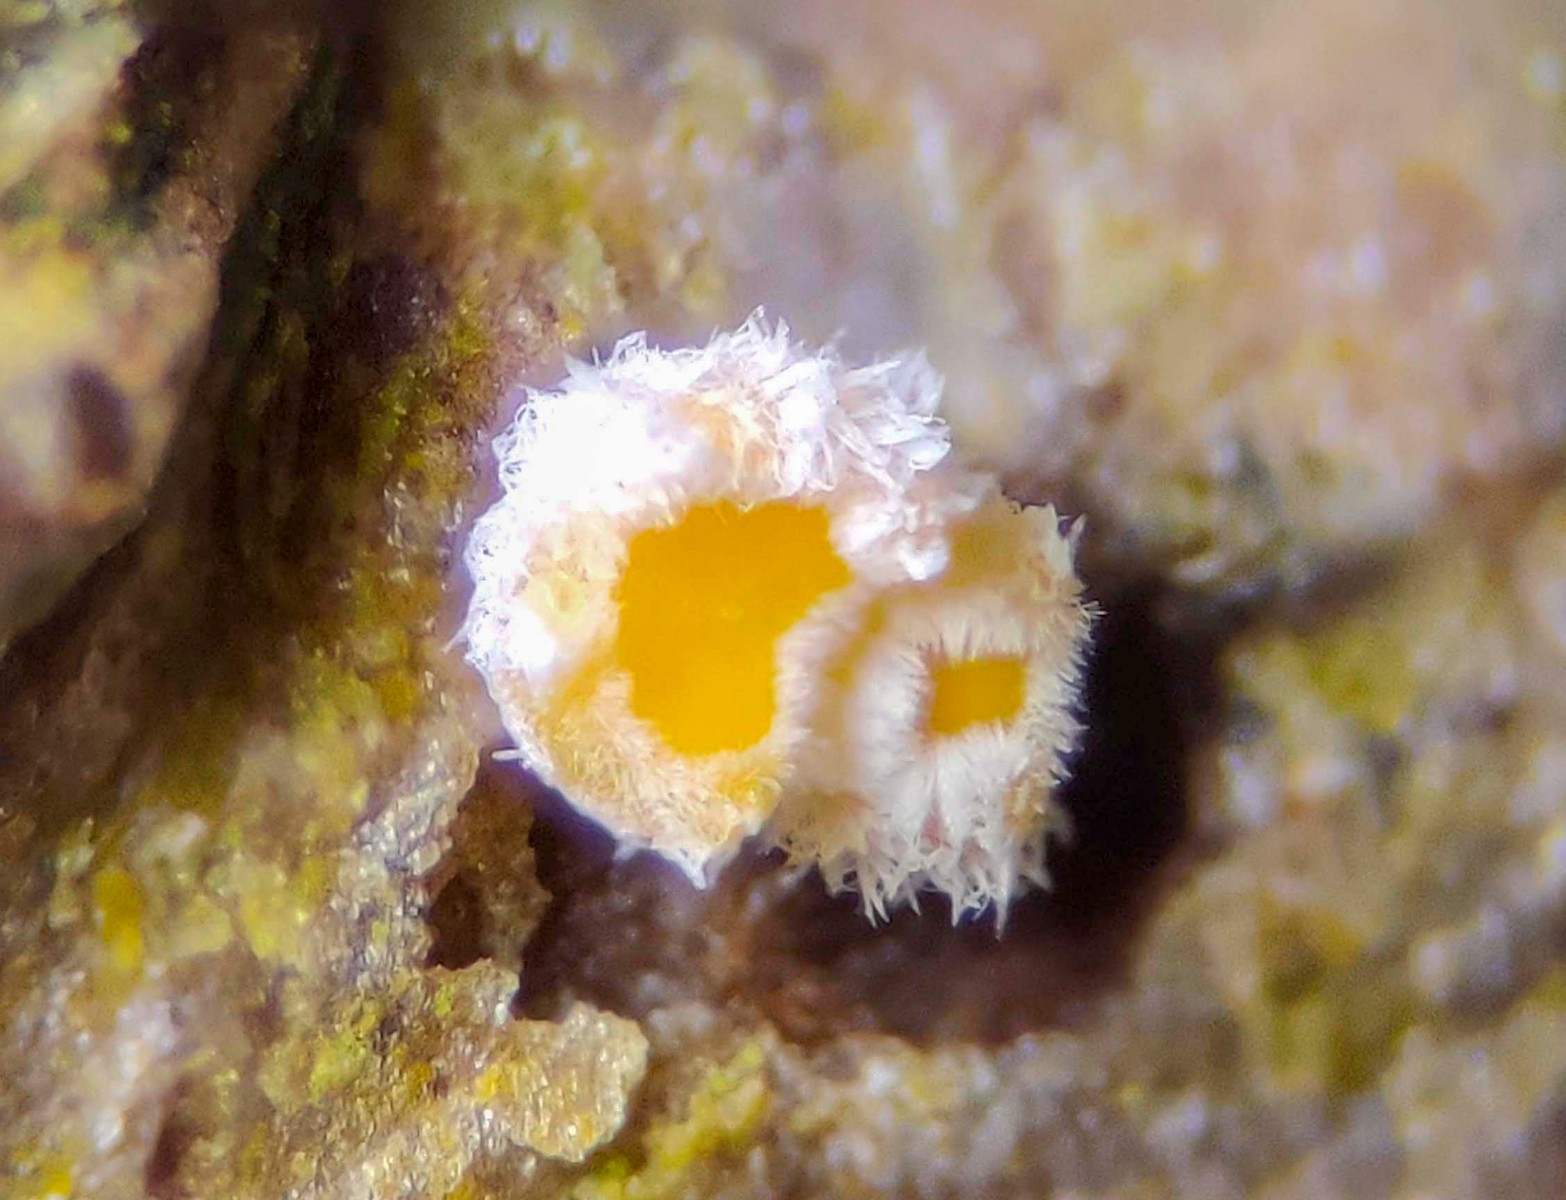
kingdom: Fungi
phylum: Ascomycota
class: Leotiomycetes
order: Helotiales
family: Lachnaceae
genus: Capitotricha
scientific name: Capitotricha bicolor
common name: prægtig frynseskive
